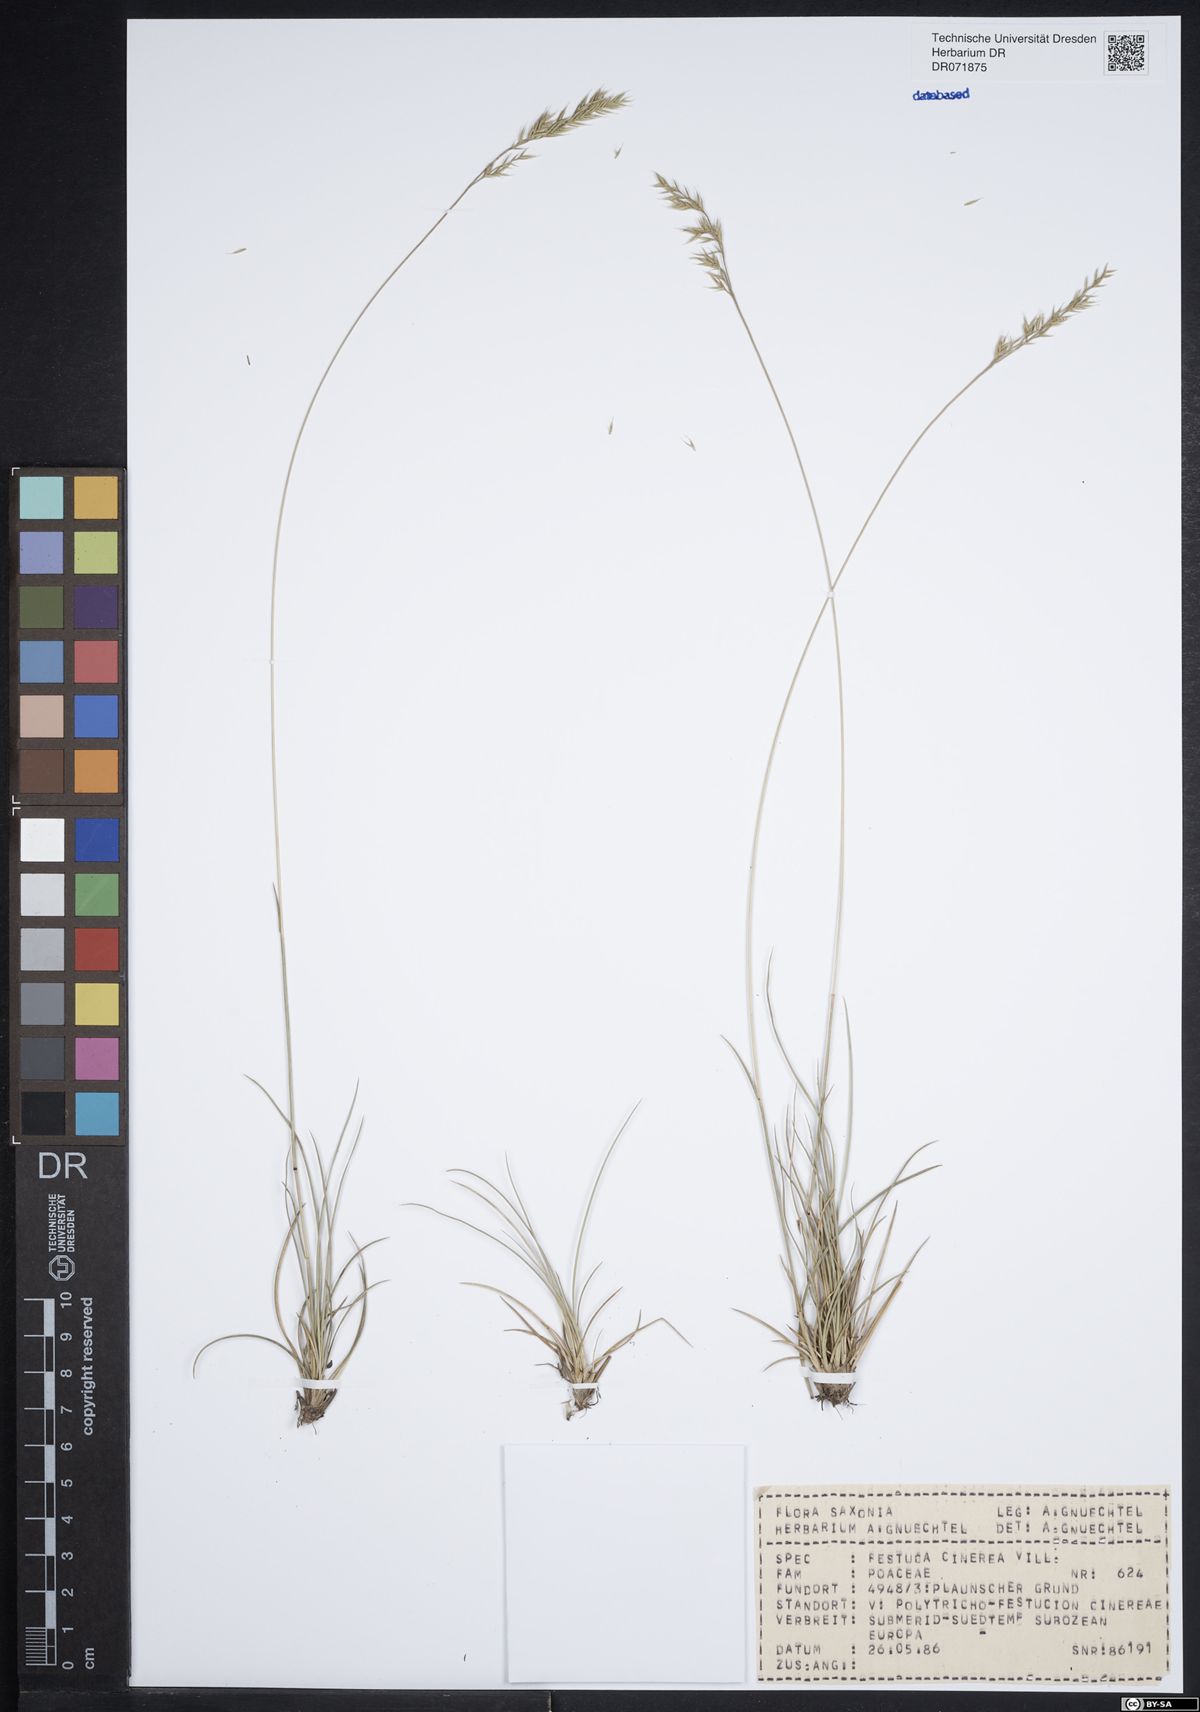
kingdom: Plantae
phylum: Tracheophyta
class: Liliopsida
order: Poales
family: Poaceae
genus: Festuca
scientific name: Festuca cinerea
